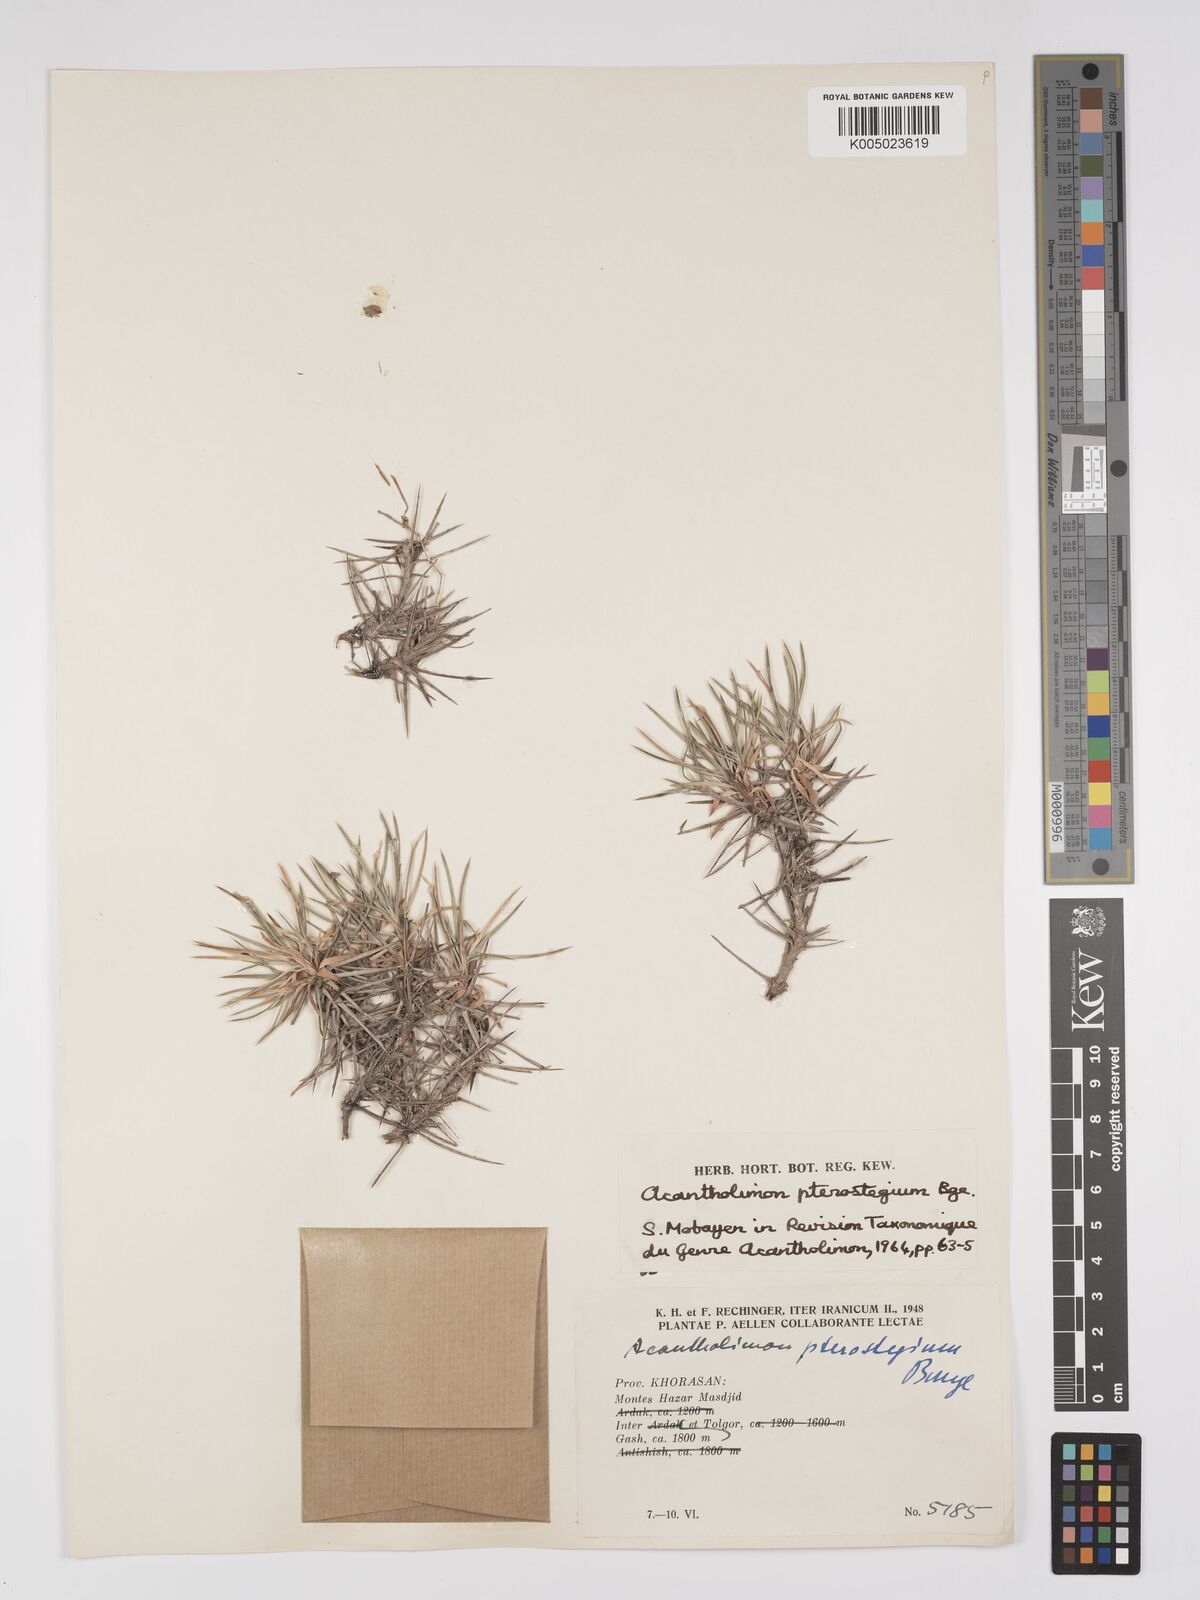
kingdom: Plantae
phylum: Tracheophyta
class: Magnoliopsida
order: Caryophyllales
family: Plumbaginaceae
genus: Acantholimon
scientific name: Acantholimon pterostegium
